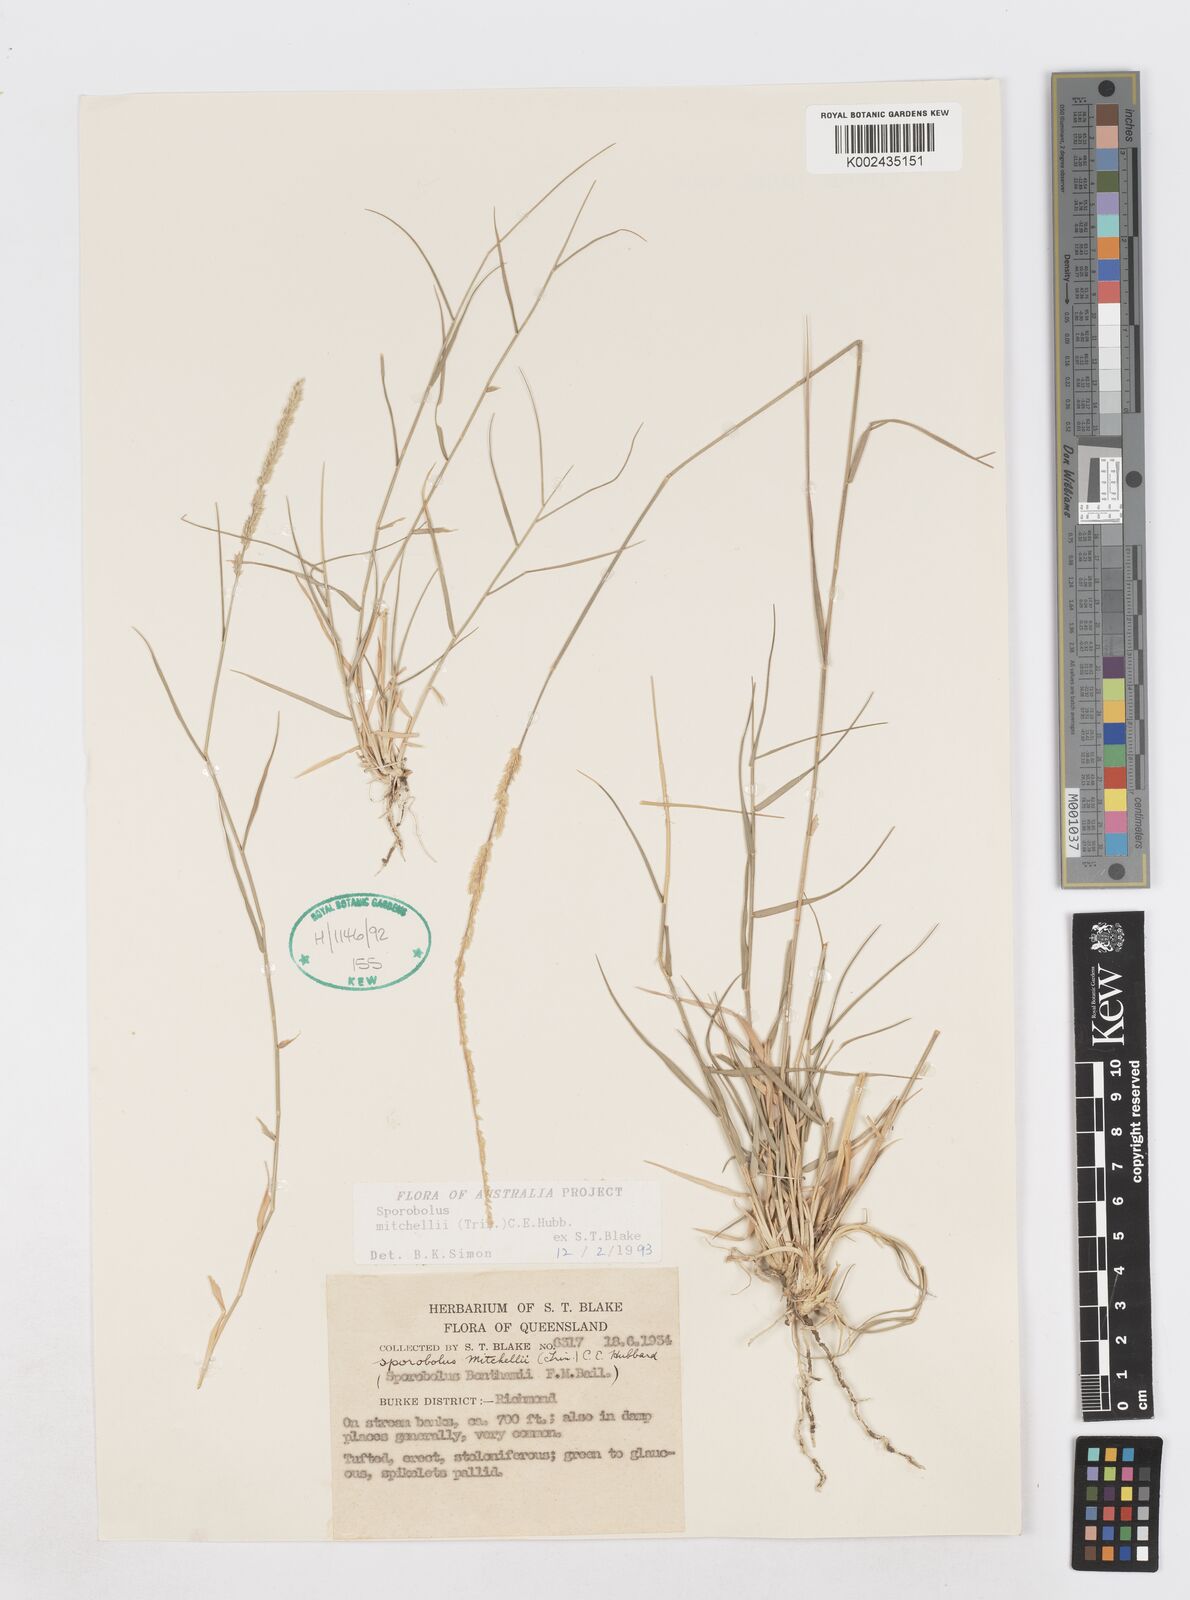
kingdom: Plantae
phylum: Tracheophyta
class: Liliopsida
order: Poales
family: Poaceae
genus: Sporobolus
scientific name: Sporobolus mitchellii
